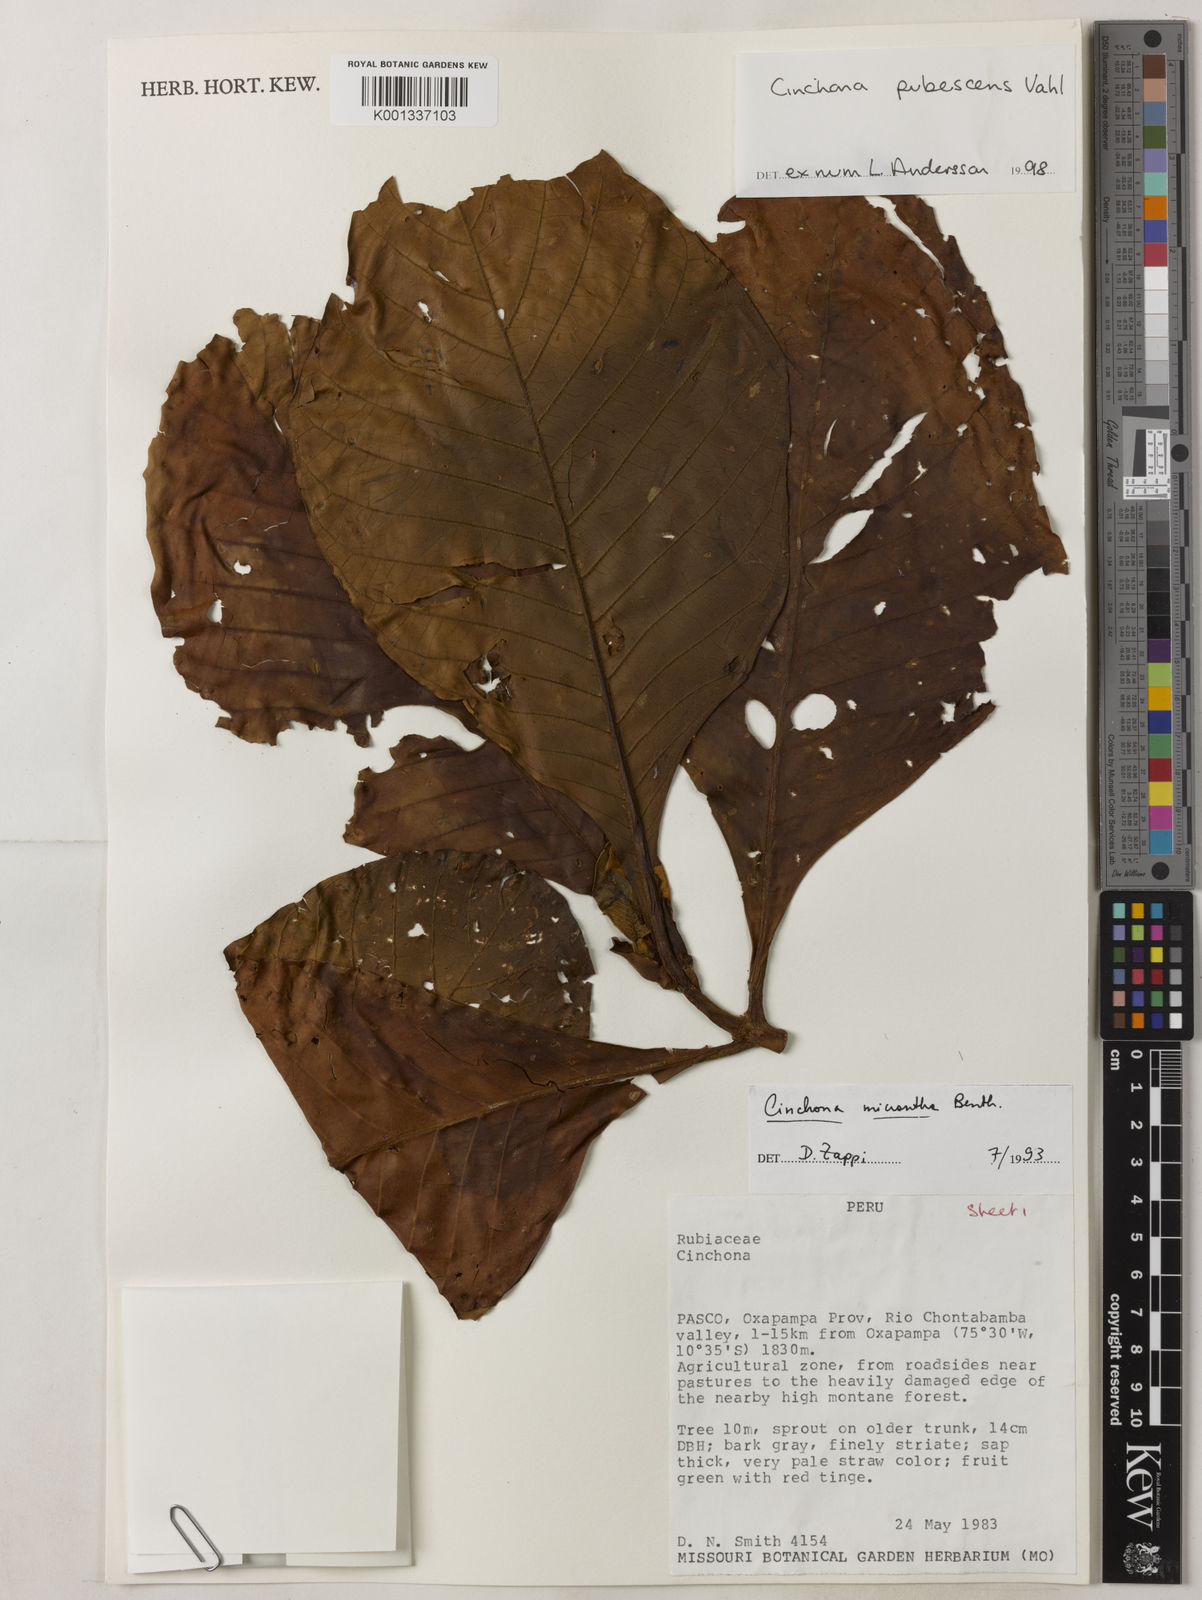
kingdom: Plantae
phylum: Tracheophyta
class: Magnoliopsida
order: Gentianales
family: Rubiaceae
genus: Cinchona
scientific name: Cinchona pubescens
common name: Quinine
